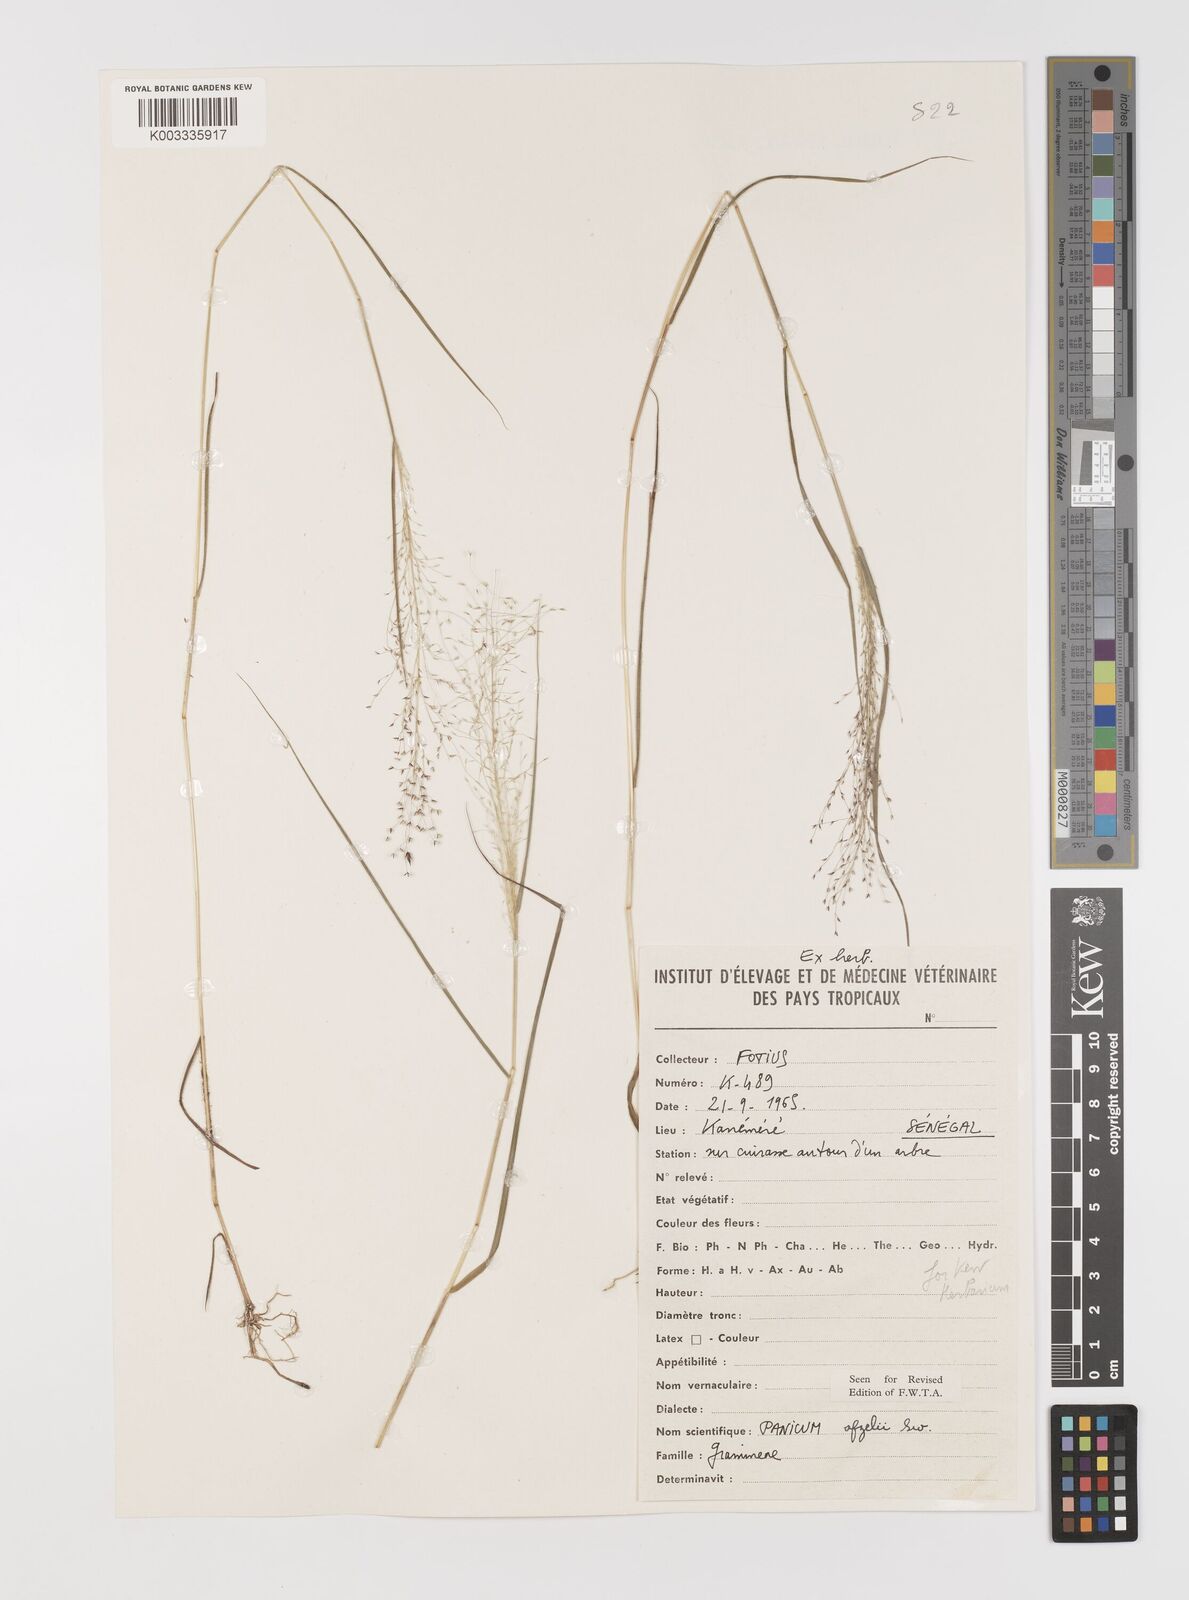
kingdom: Plantae
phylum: Tracheophyta
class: Liliopsida
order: Poales
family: Poaceae
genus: Panicum
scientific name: Panicum afzelii
